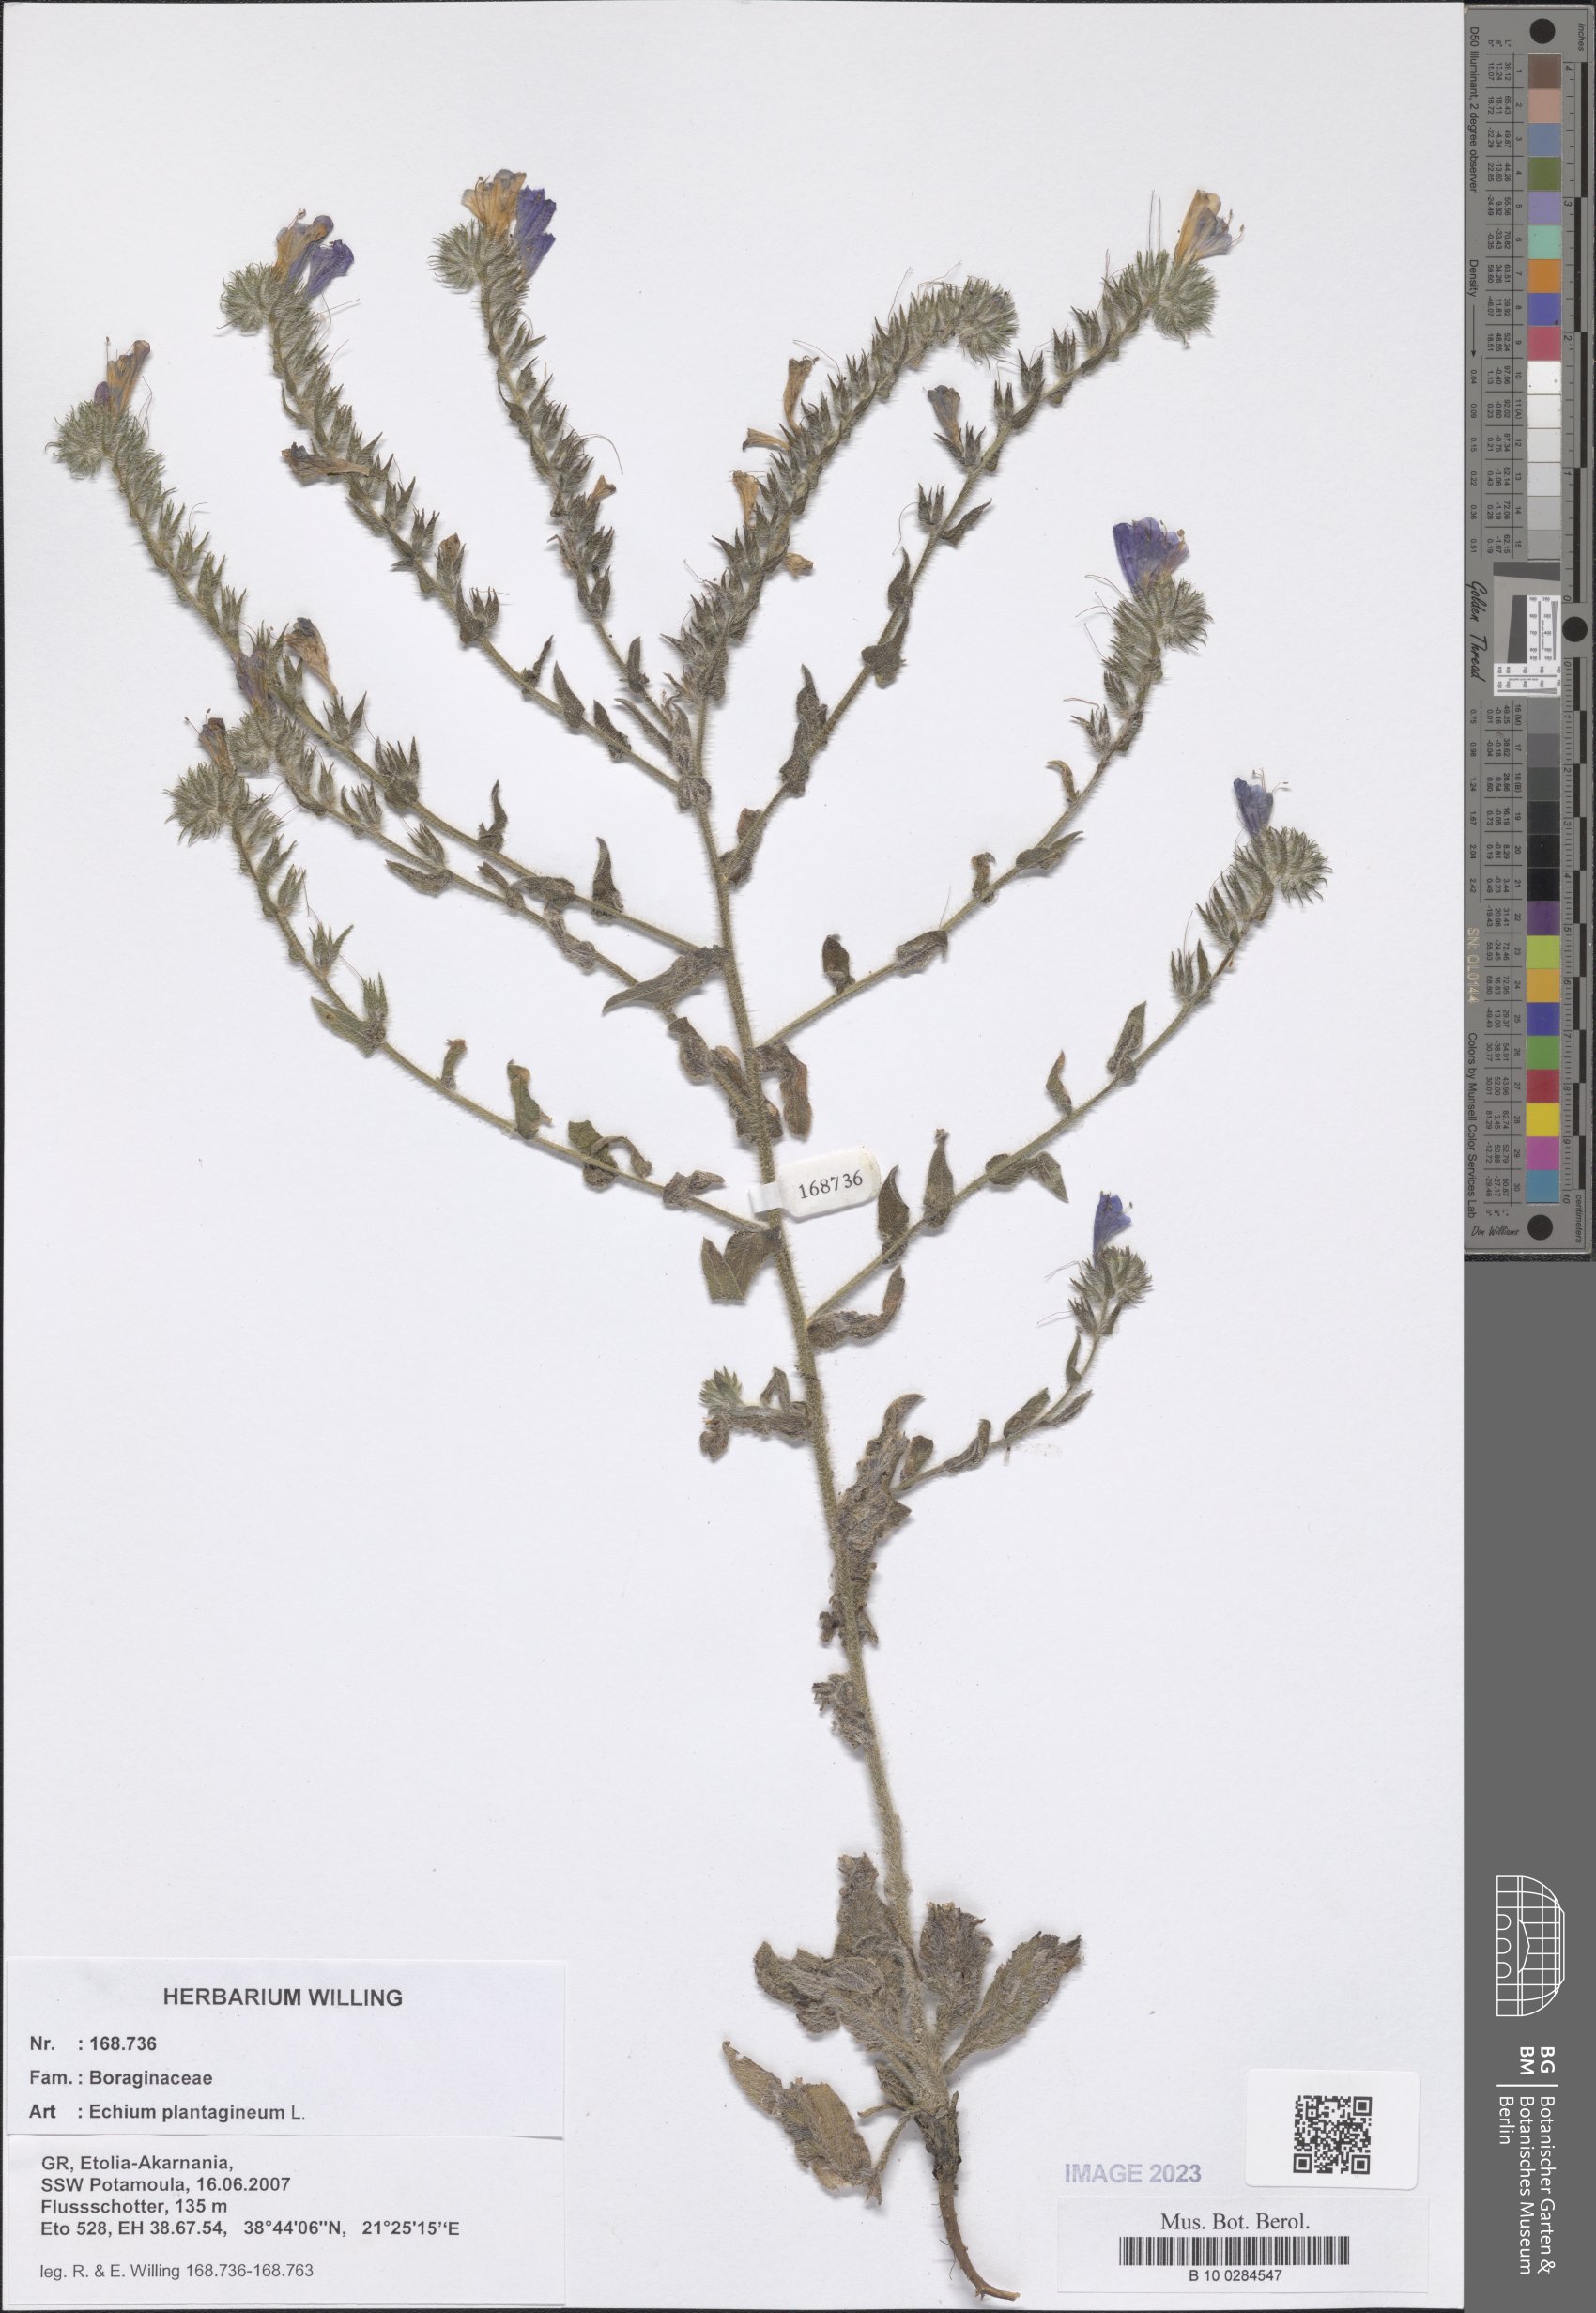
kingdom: Plantae
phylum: Tracheophyta
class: Magnoliopsida
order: Boraginales
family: Boraginaceae
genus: Echium
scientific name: Echium plantagineum
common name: Purple viper's-bugloss
